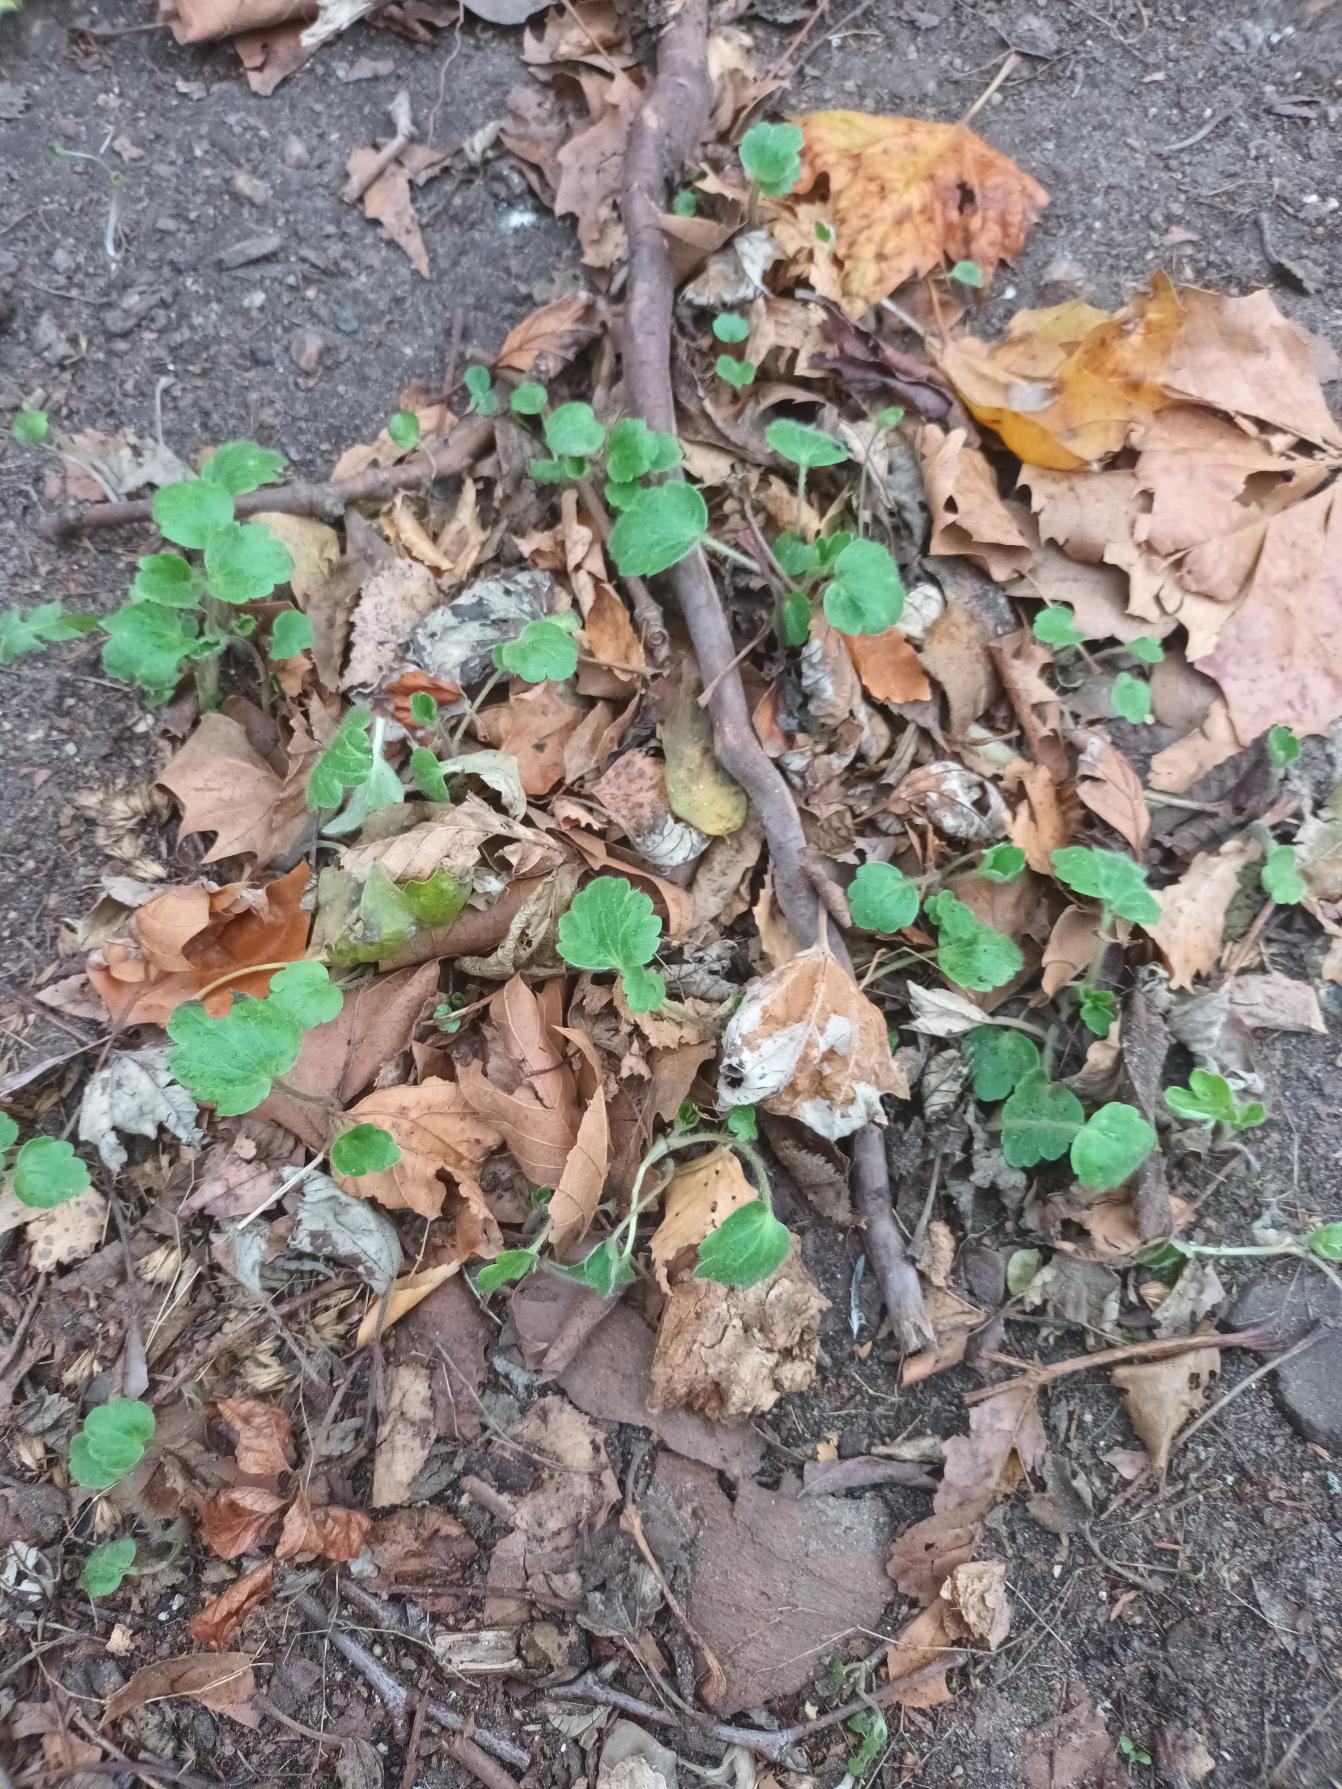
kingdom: Plantae
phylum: Tracheophyta
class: Magnoliopsida
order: Ranunculales
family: Ranunculaceae
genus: Ranunculus
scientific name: Ranunculus psilostachys
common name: Balkan-ranunkel
